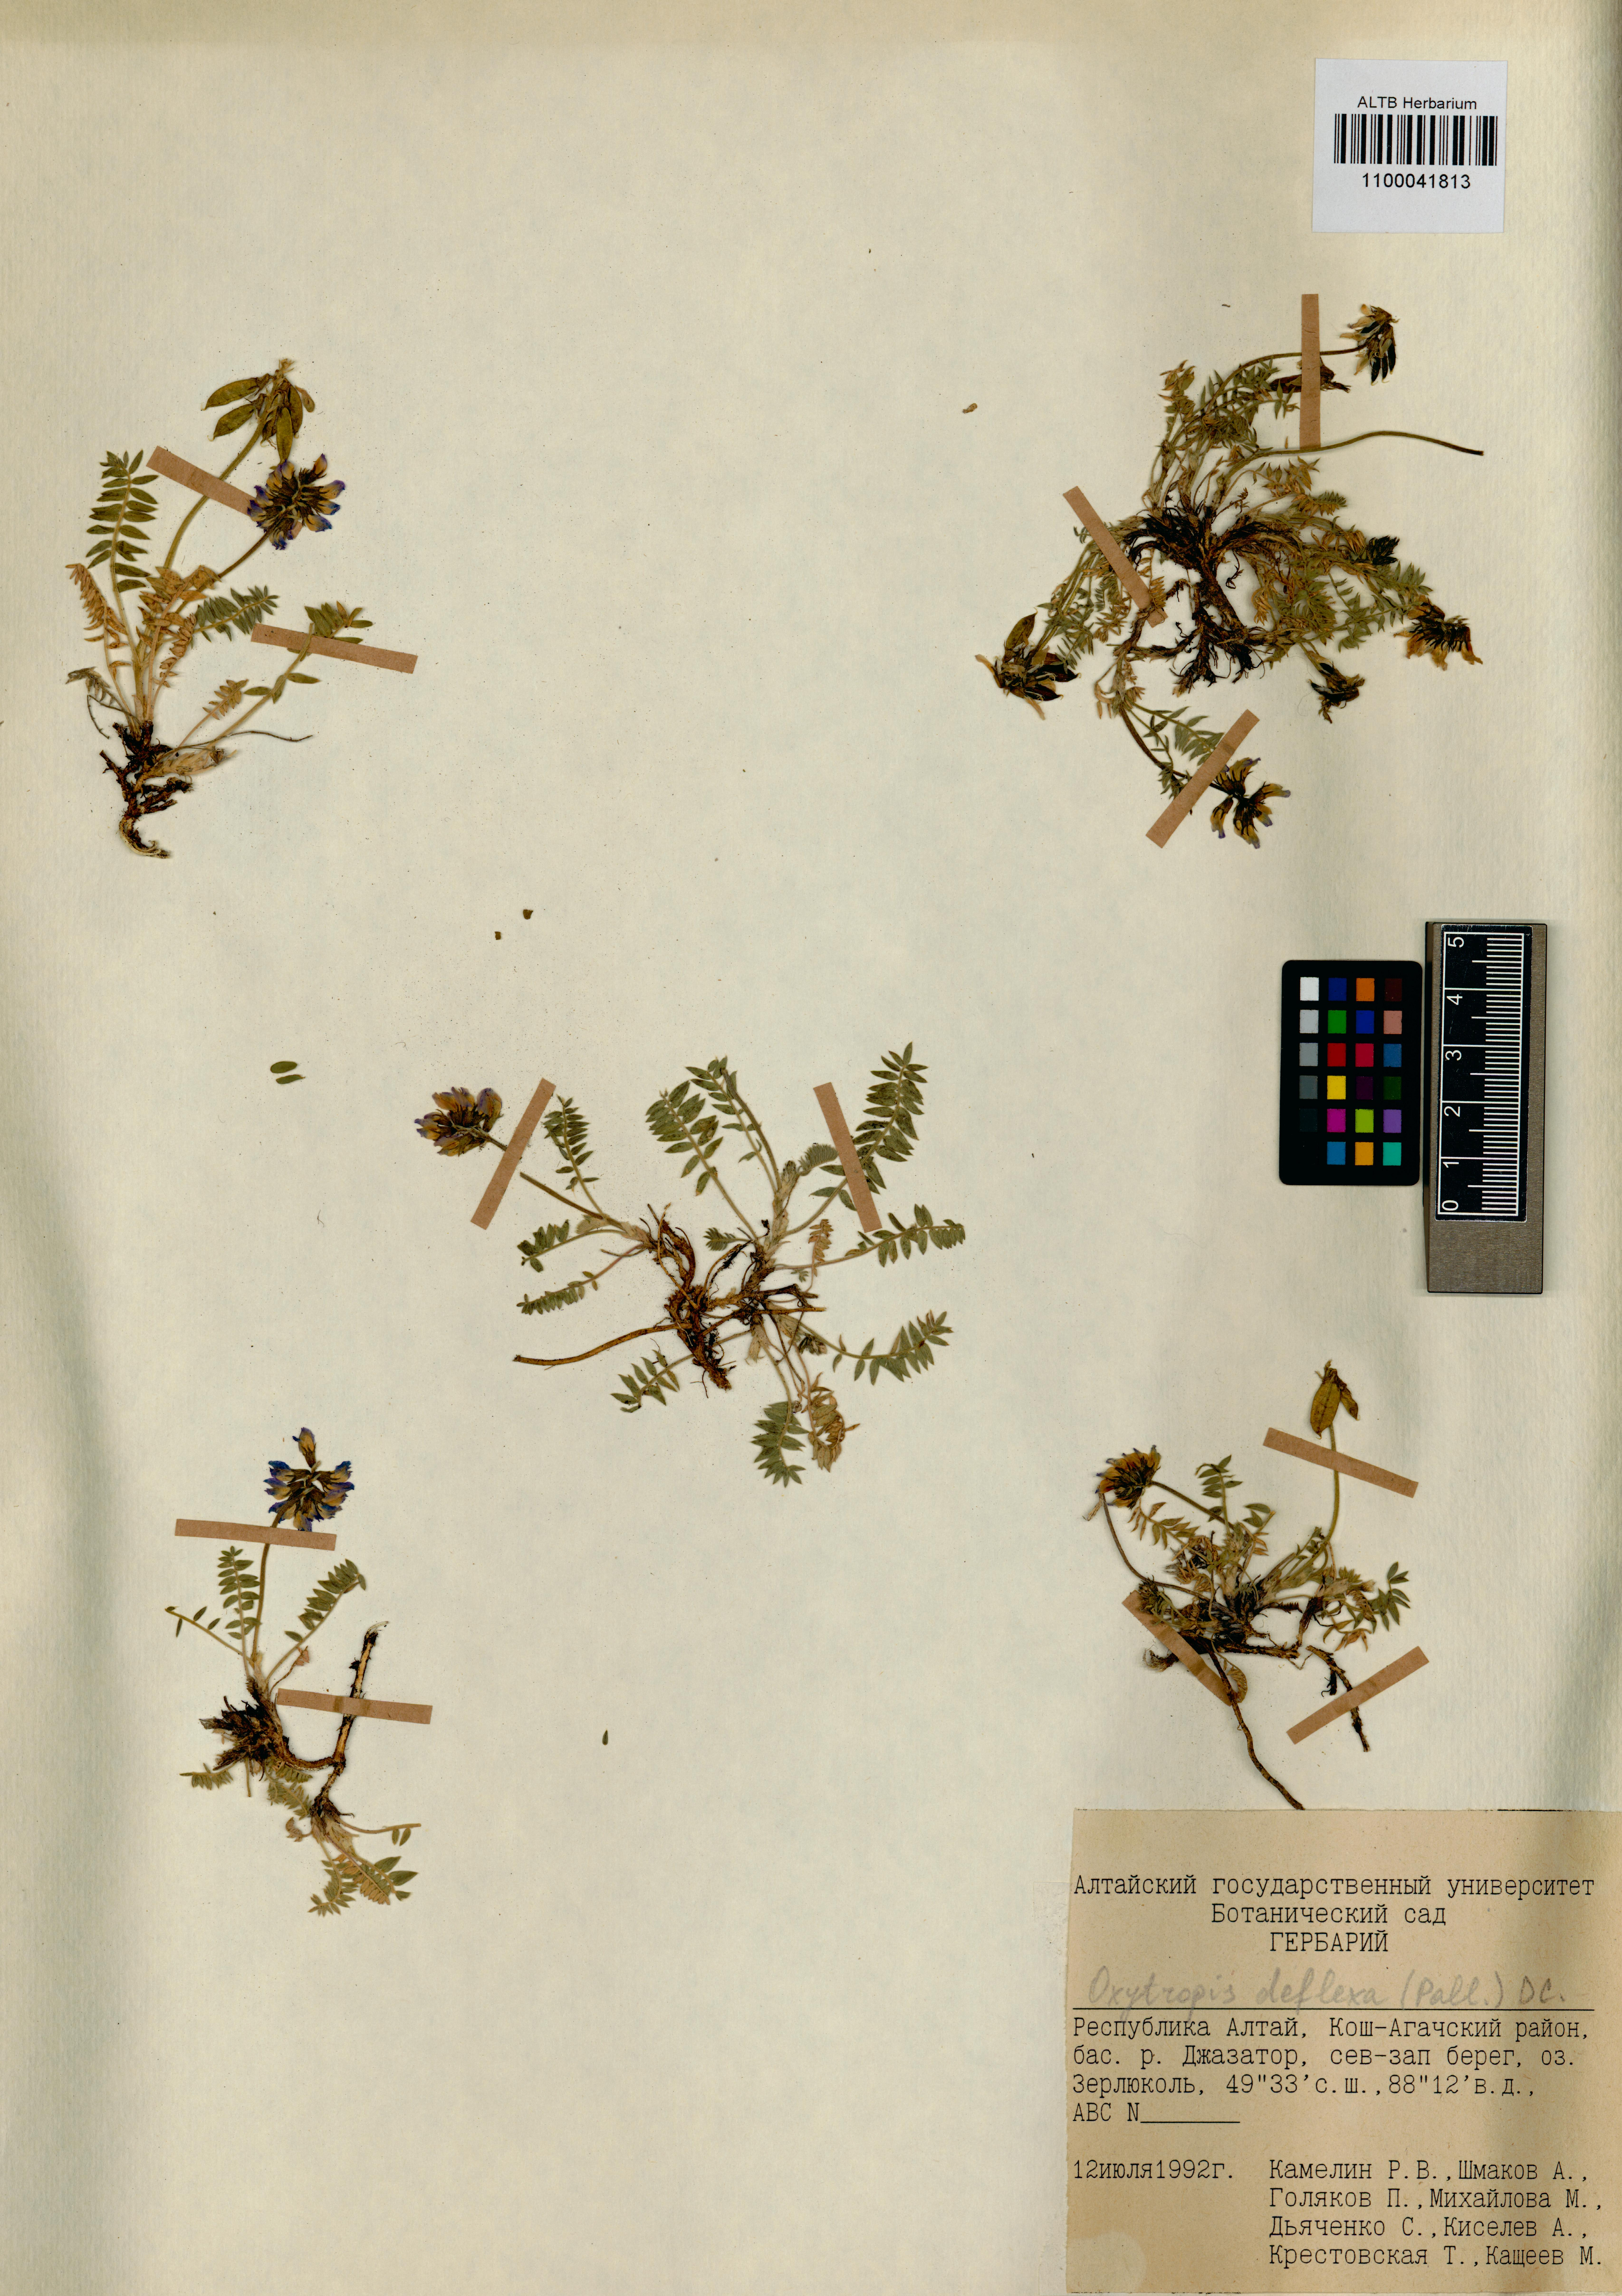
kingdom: Plantae
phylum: Tracheophyta
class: Magnoliopsida
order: Fabales
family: Fabaceae
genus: Oxytropis
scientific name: Oxytropis deflexa
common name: Stemmed oxytrope
